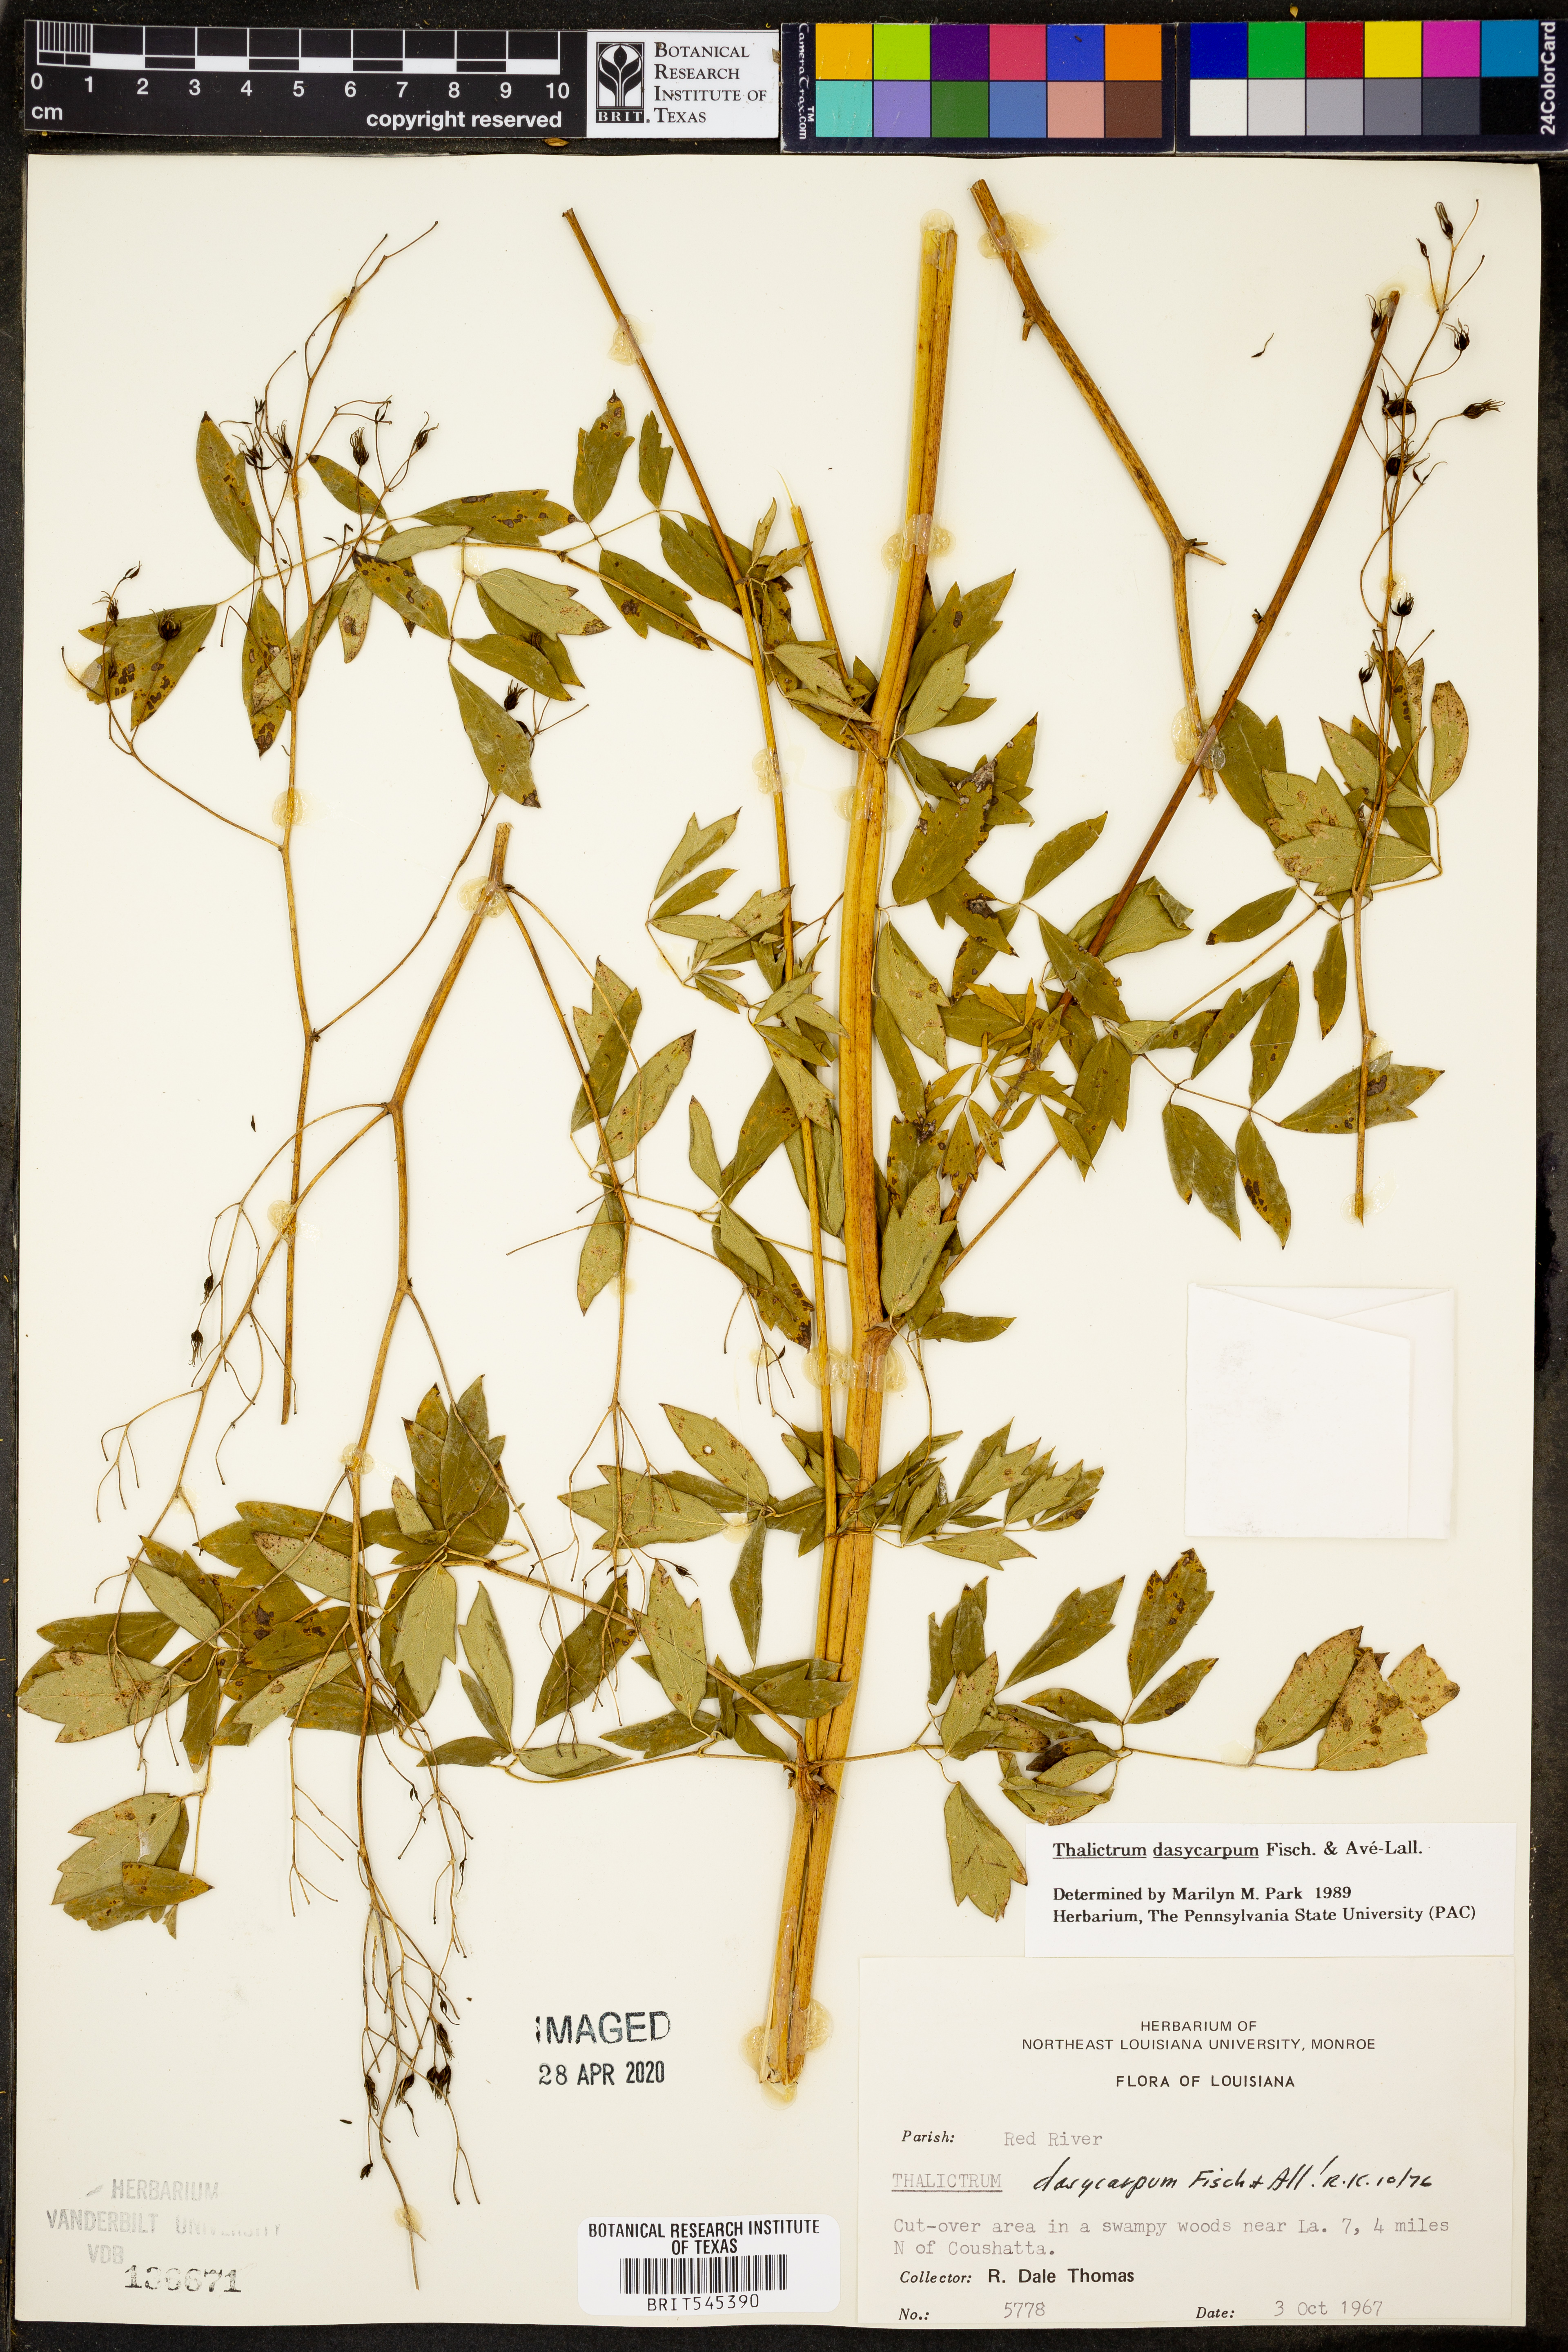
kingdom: Plantae
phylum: Tracheophyta
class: Magnoliopsida
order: Ranunculales
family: Ranunculaceae
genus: Thalictrum
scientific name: Thalictrum dasycarpum
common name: Purple meadow-rue
